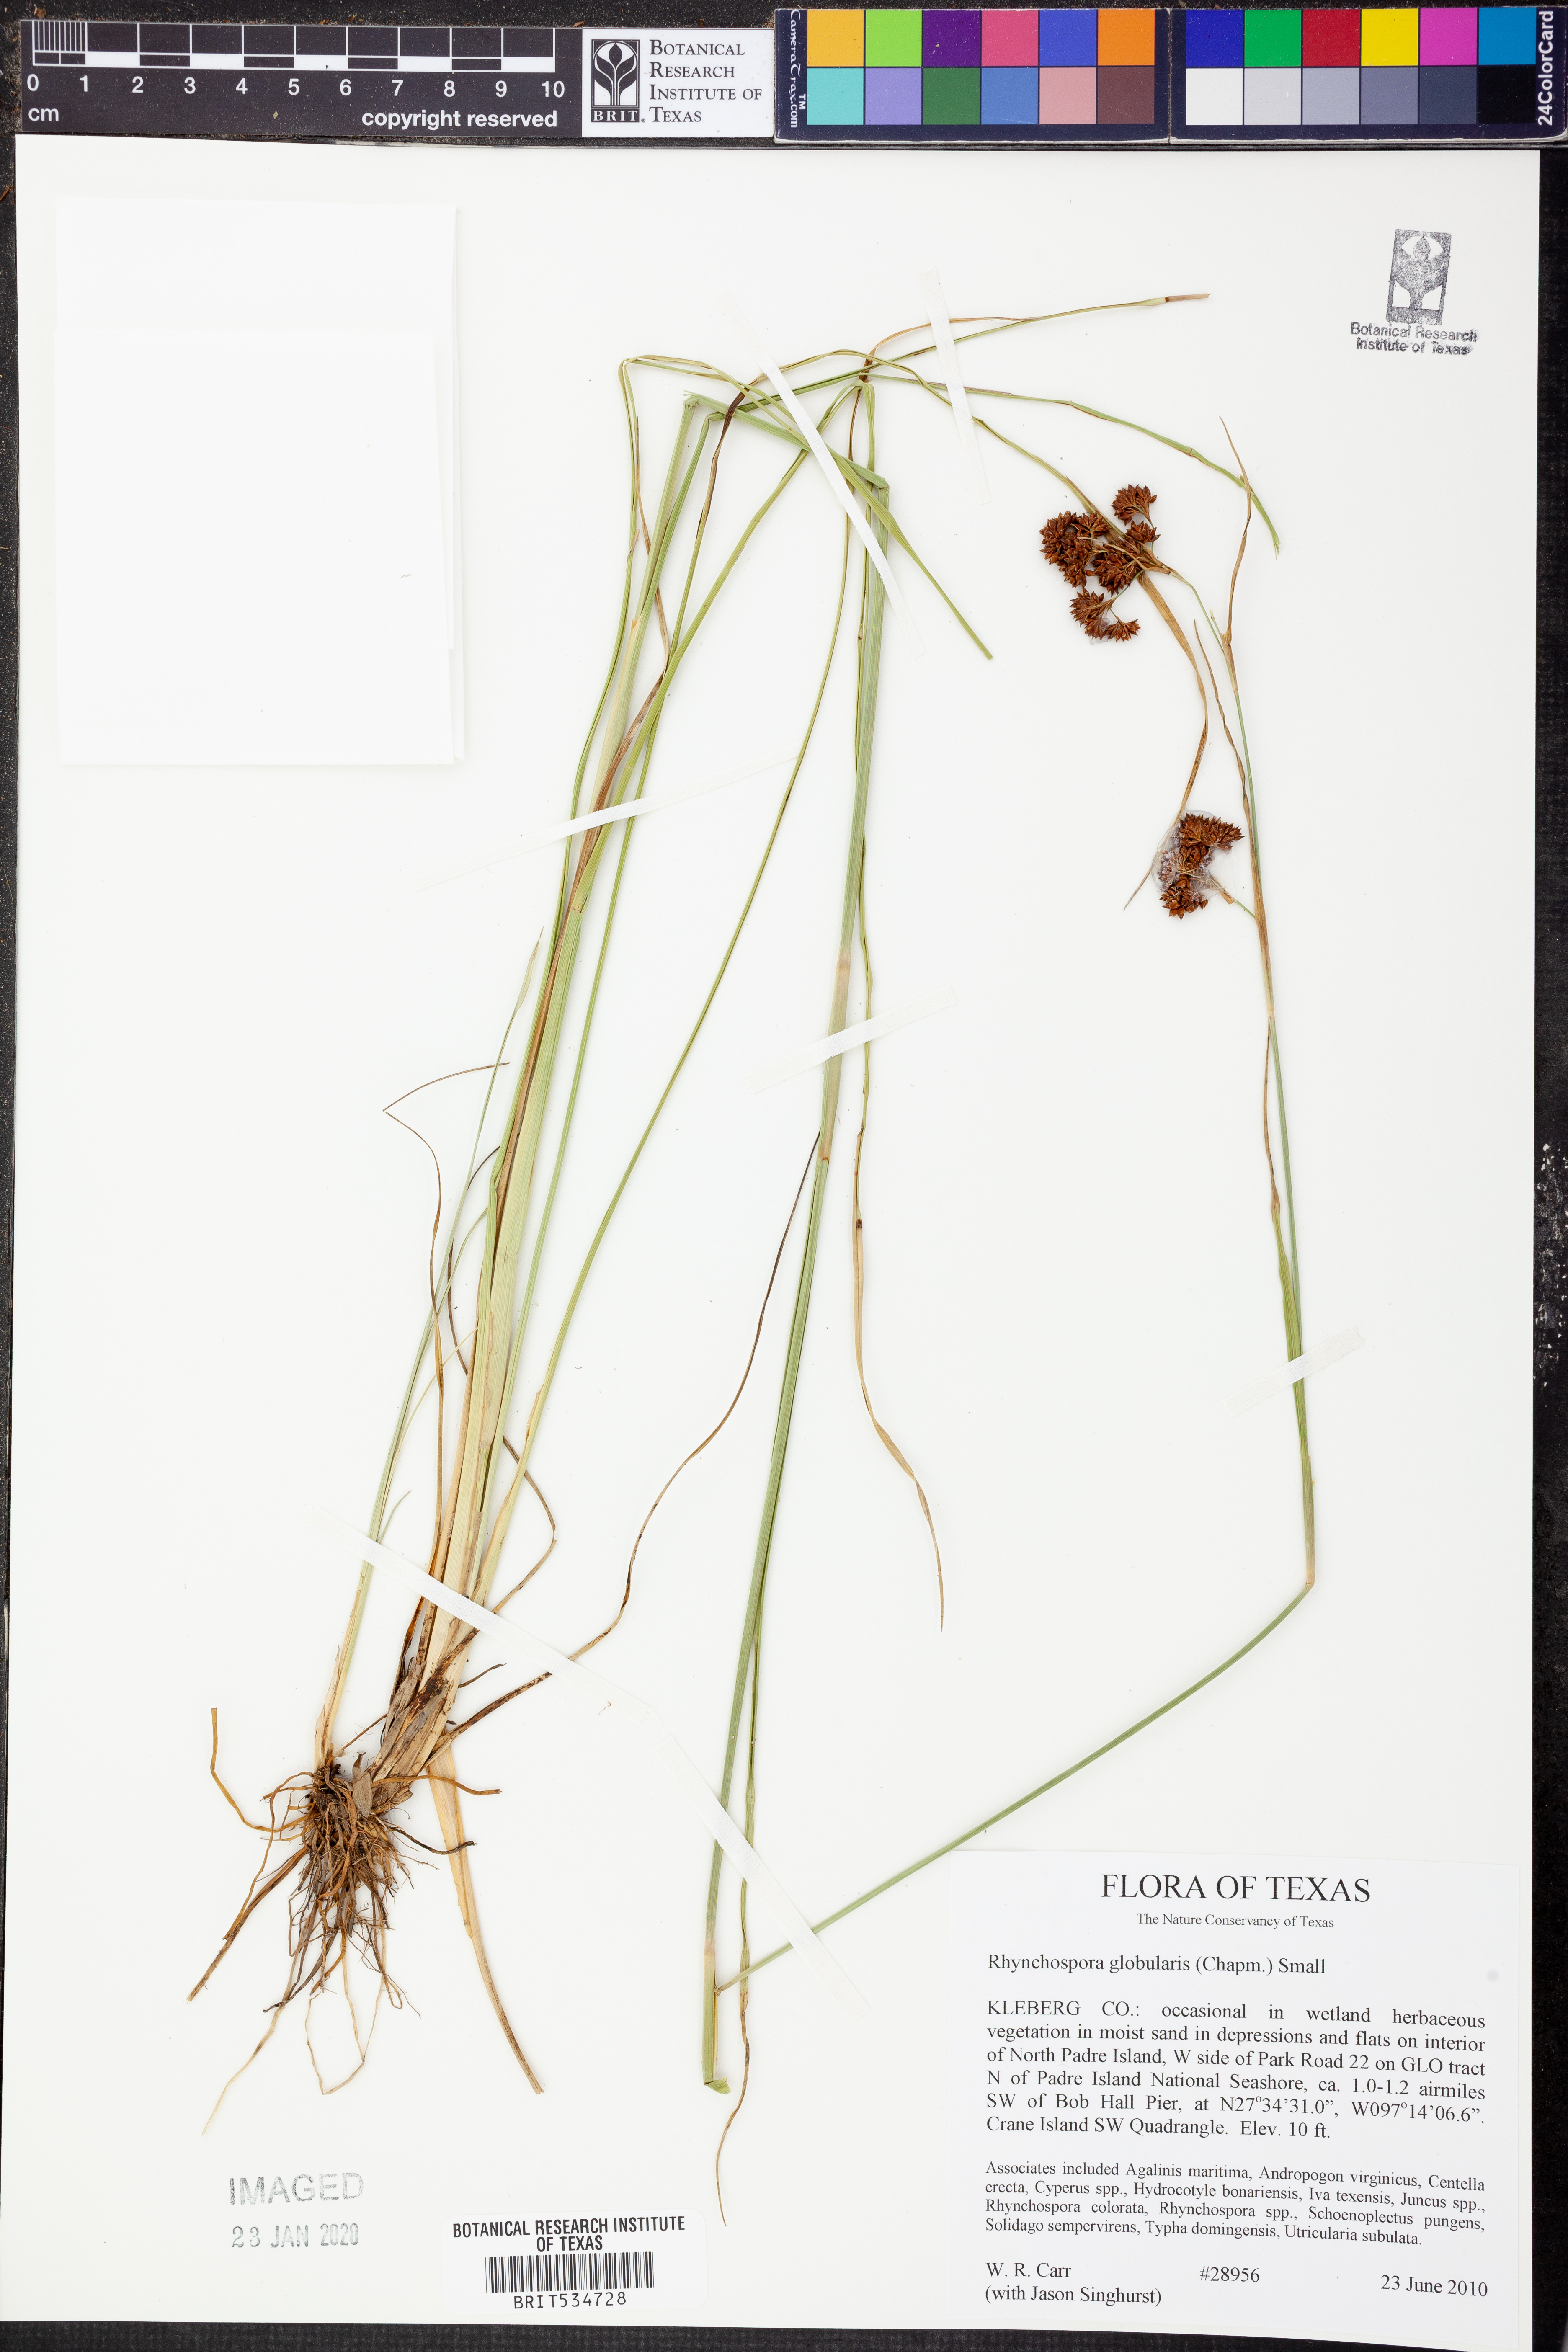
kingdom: Plantae
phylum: Tracheophyta
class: Liliopsida
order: Poales
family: Cyperaceae
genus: Rhynchospora
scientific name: Rhynchospora globularis
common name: Globe beaksedge
